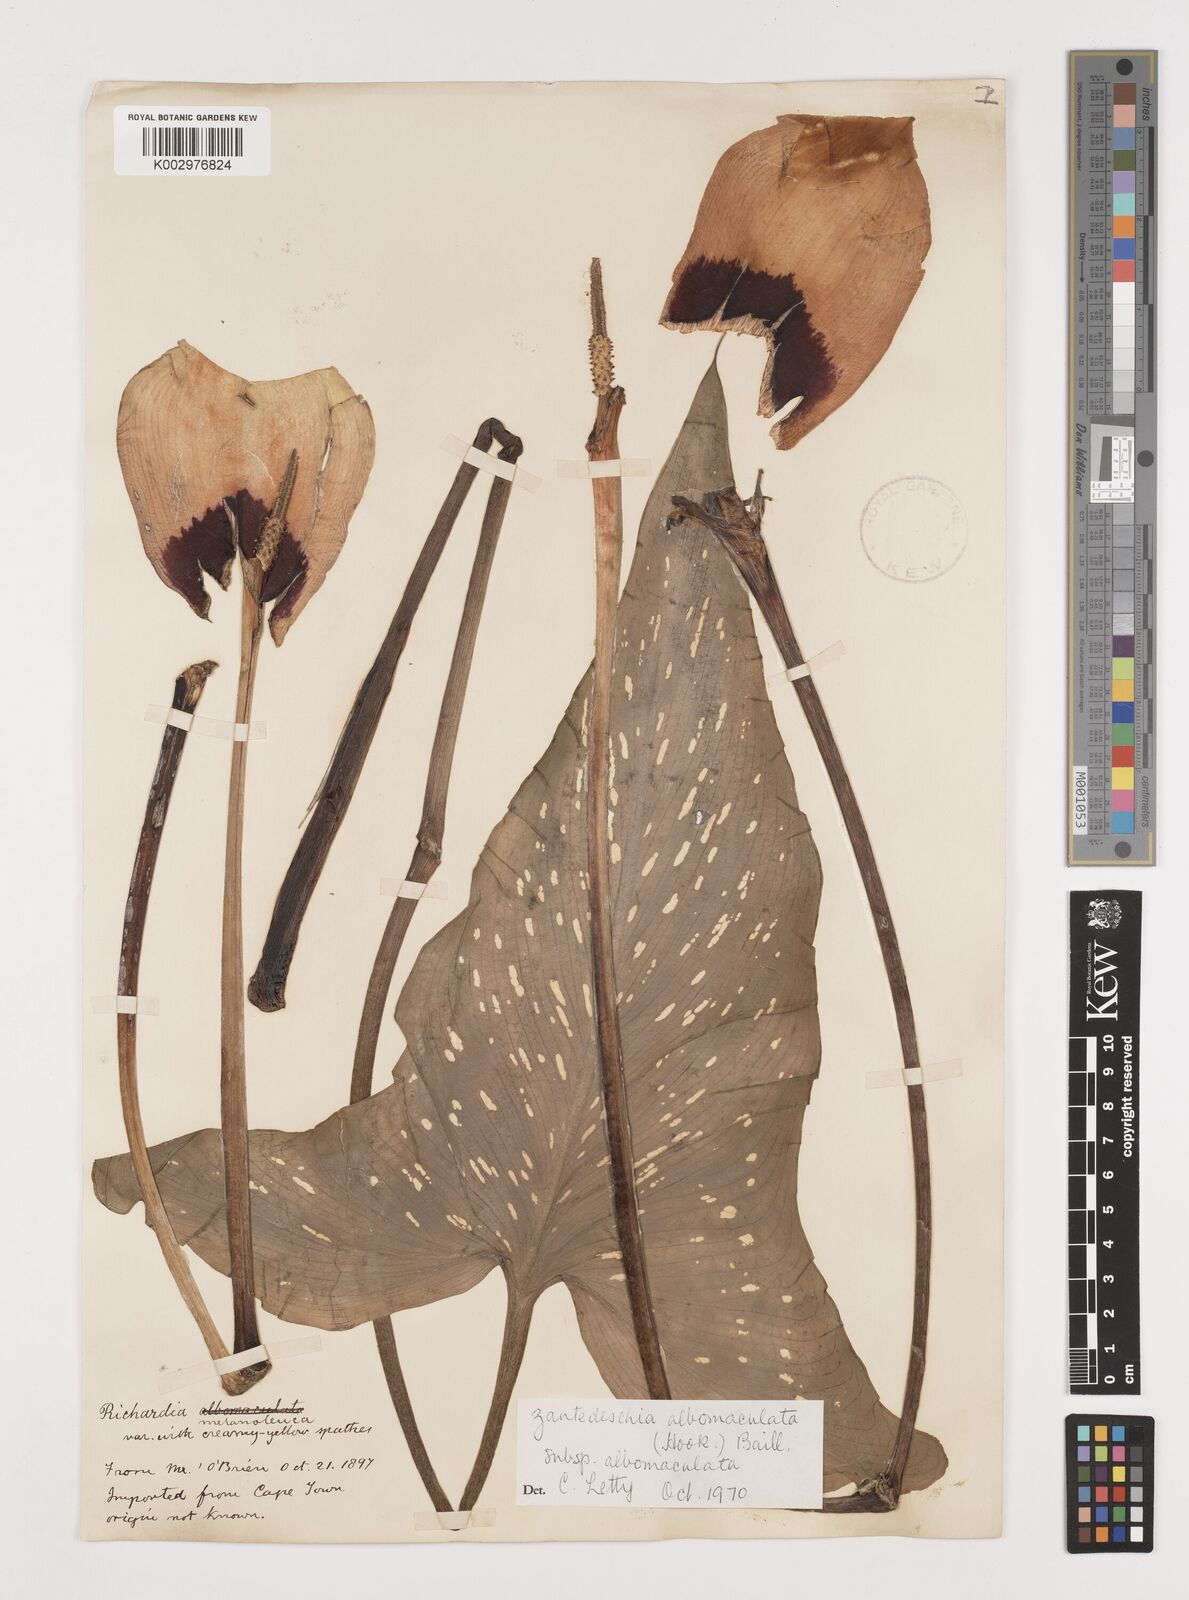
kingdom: Plantae
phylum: Tracheophyta
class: Liliopsida
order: Alismatales
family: Araceae
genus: Zantedeschia
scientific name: Zantedeschia albomaculata
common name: Spotted calla lily
